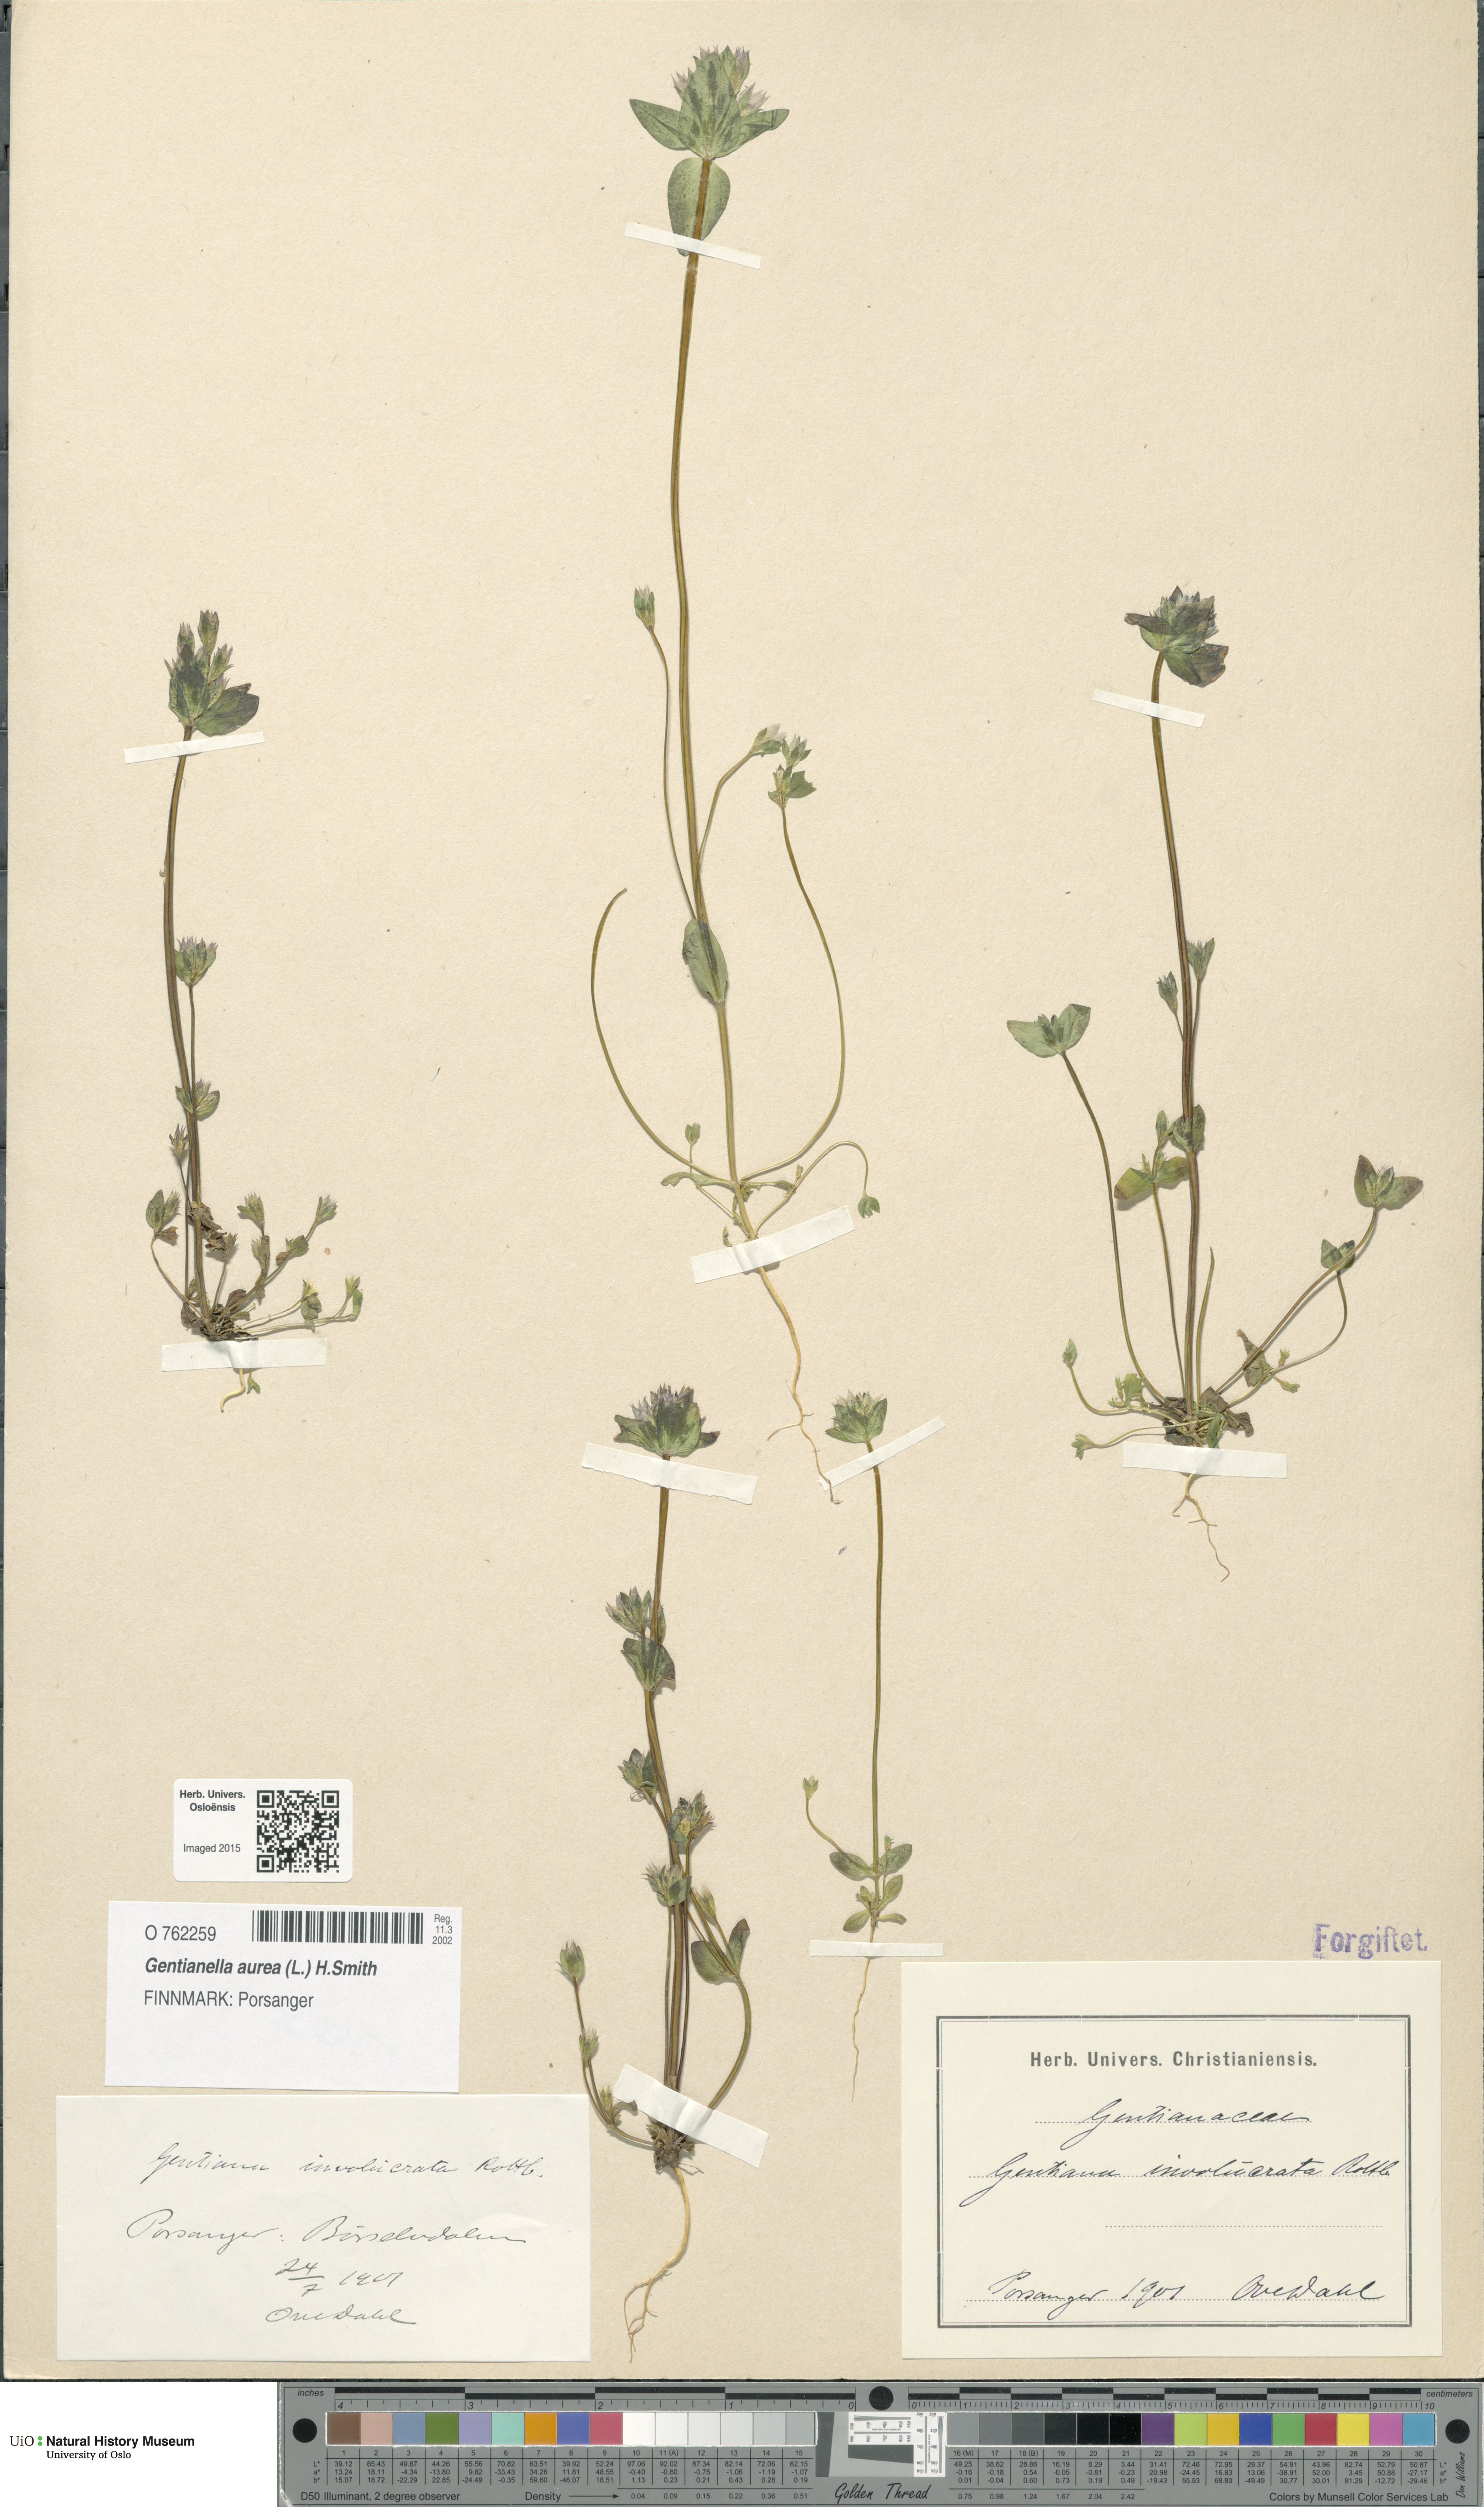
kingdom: Plantae
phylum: Tracheophyta
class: Magnoliopsida
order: Gentianales
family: Gentianaceae
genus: Gentianella
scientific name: Gentianella aurea
